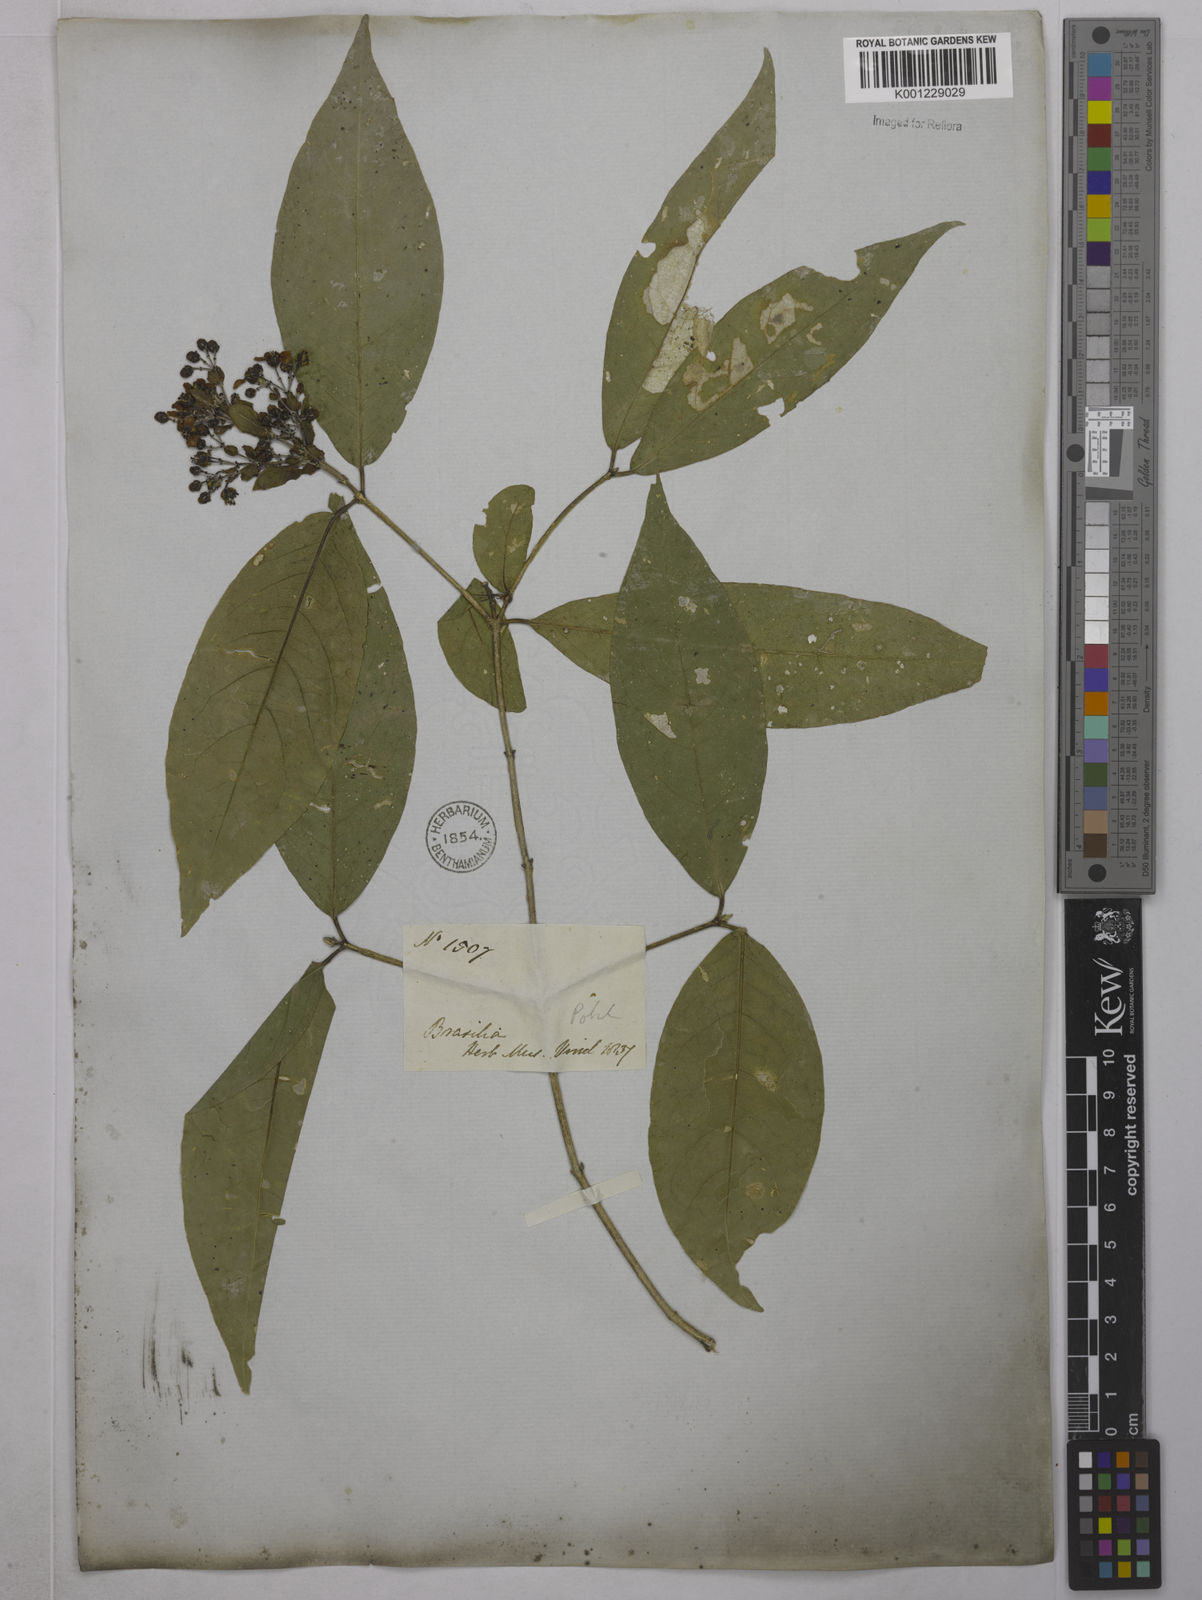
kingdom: Plantae
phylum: Tracheophyta
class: Magnoliopsida
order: Malpighiales
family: Malpighiaceae
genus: Niedenzuella
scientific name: Niedenzuella acutifolia
